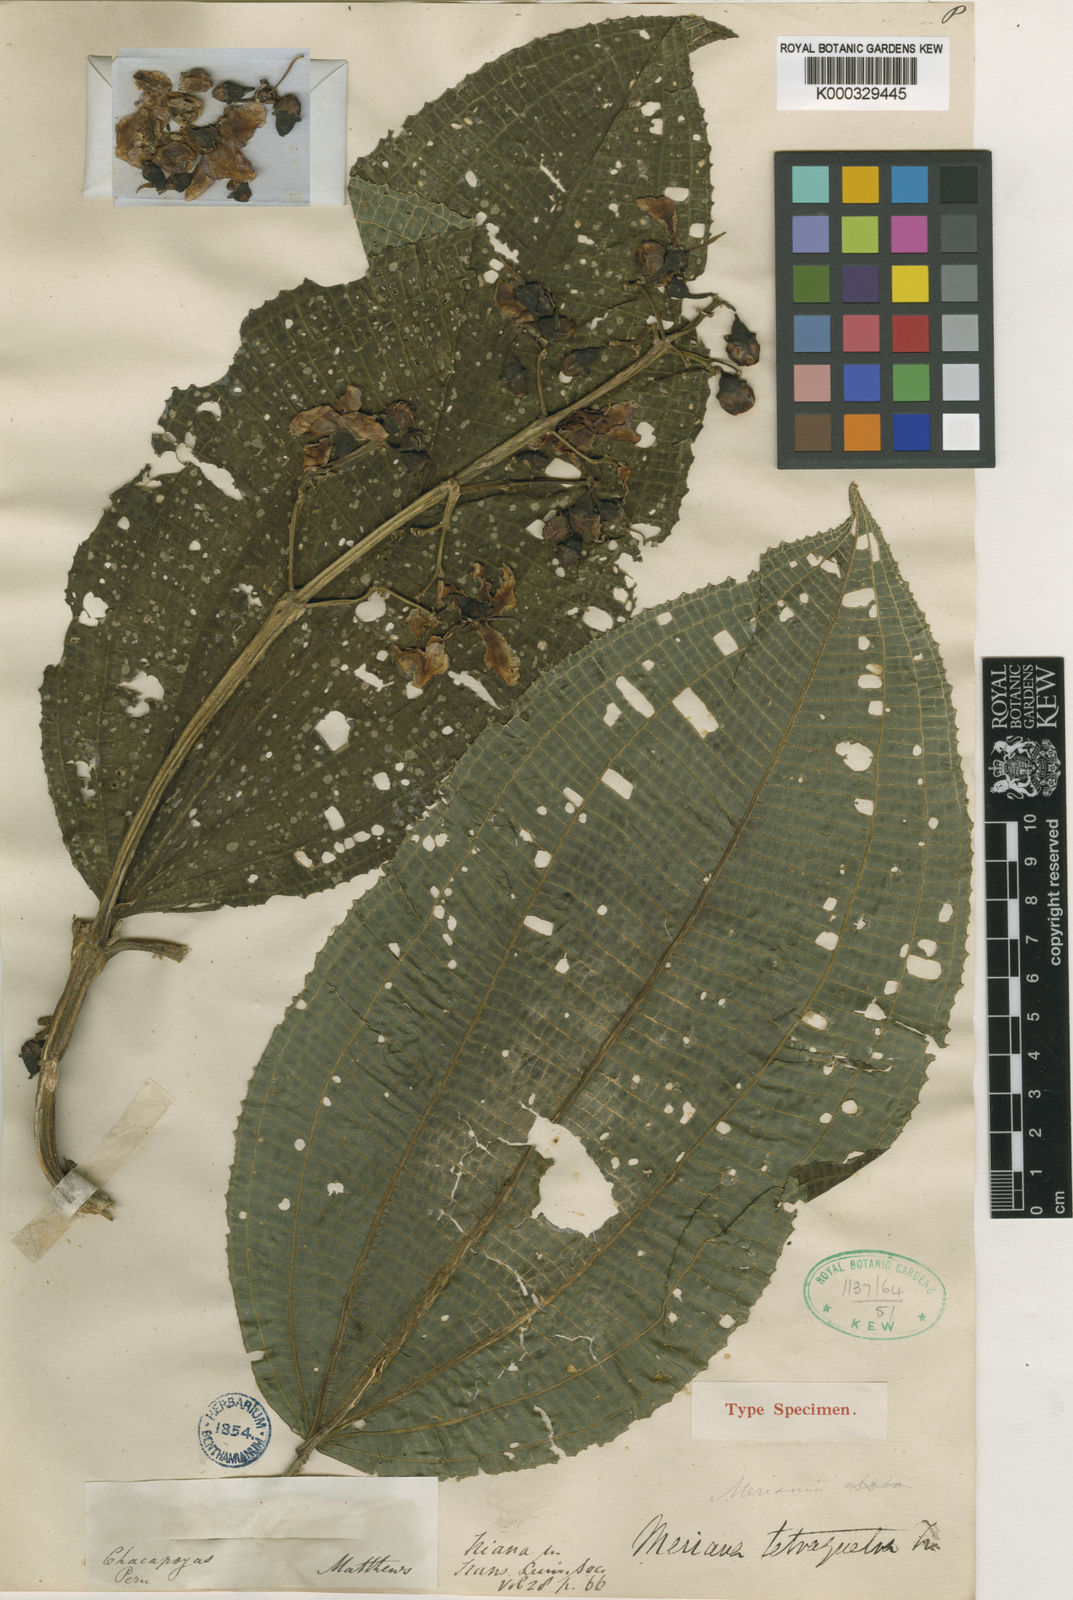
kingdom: Plantae
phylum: Tracheophyta
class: Magnoliopsida
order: Myrtales
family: Melastomataceae
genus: Meriania
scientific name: Meriania tetraquetra
